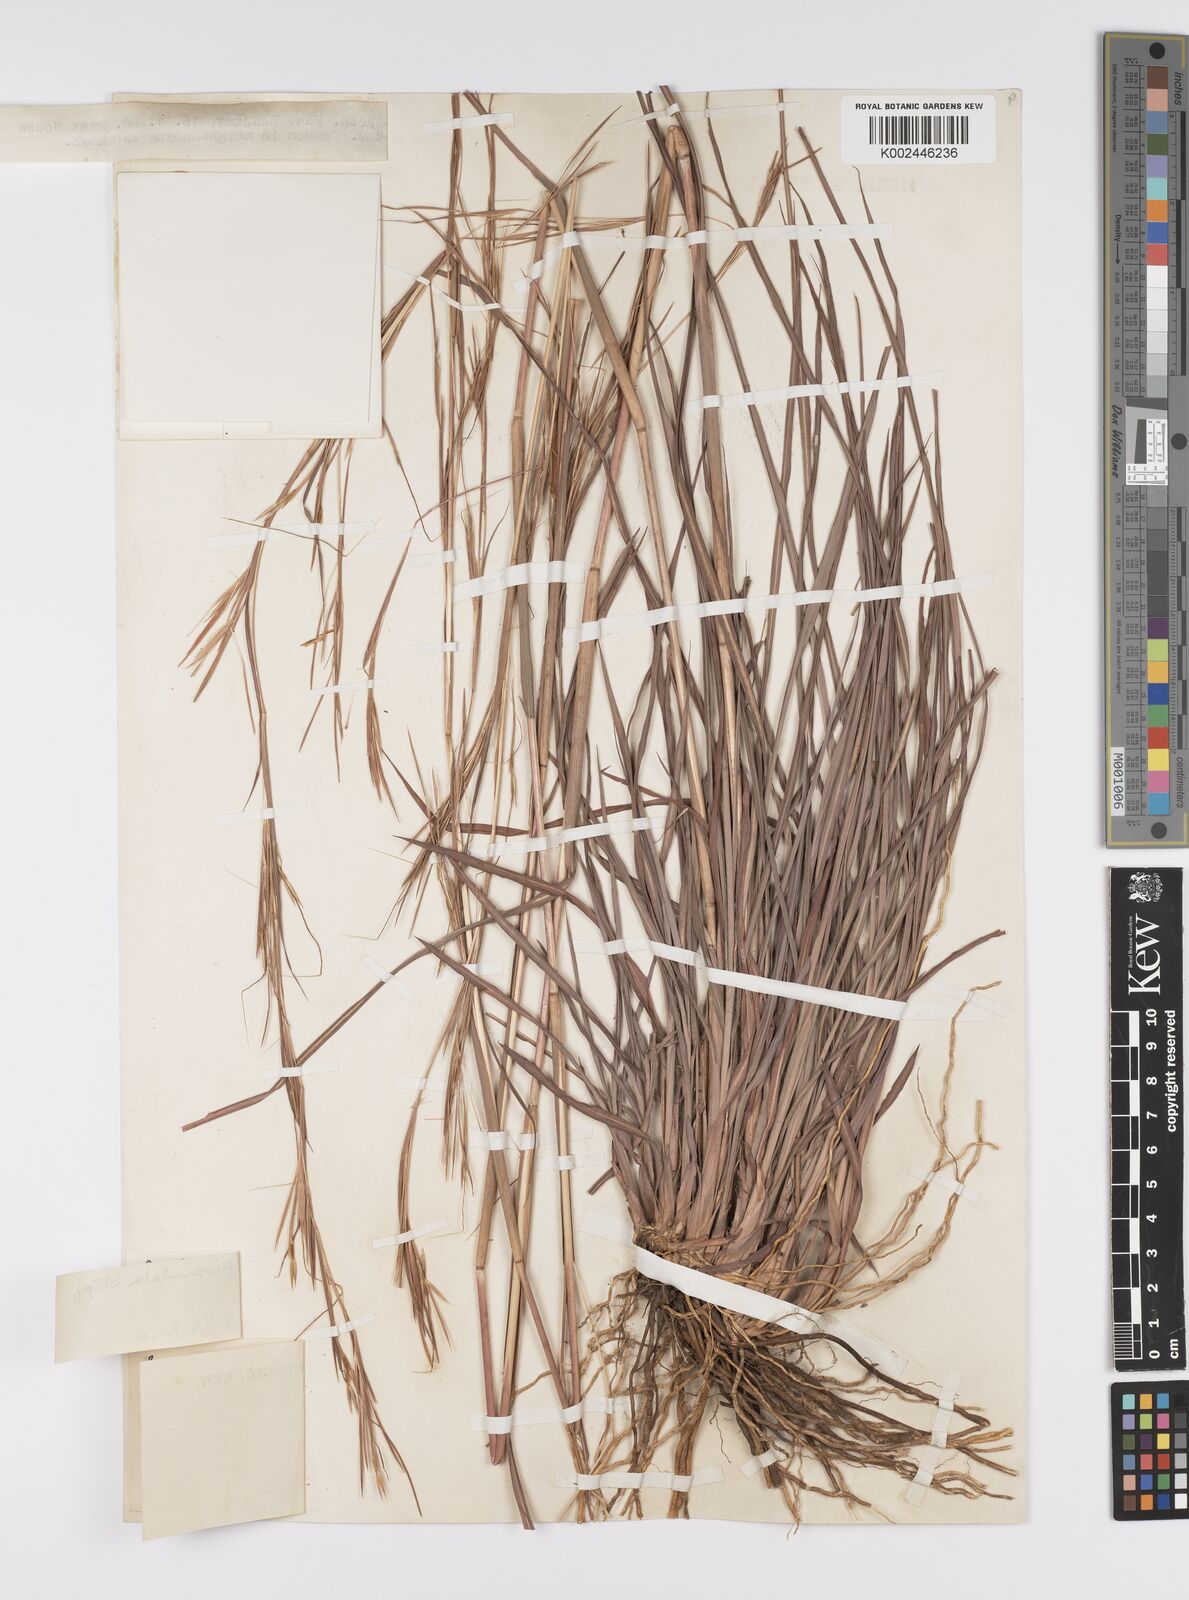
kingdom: Plantae
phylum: Tracheophyta
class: Liliopsida
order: Poales
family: Poaceae
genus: Anadelphia
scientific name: Anadelphia trispiculata
